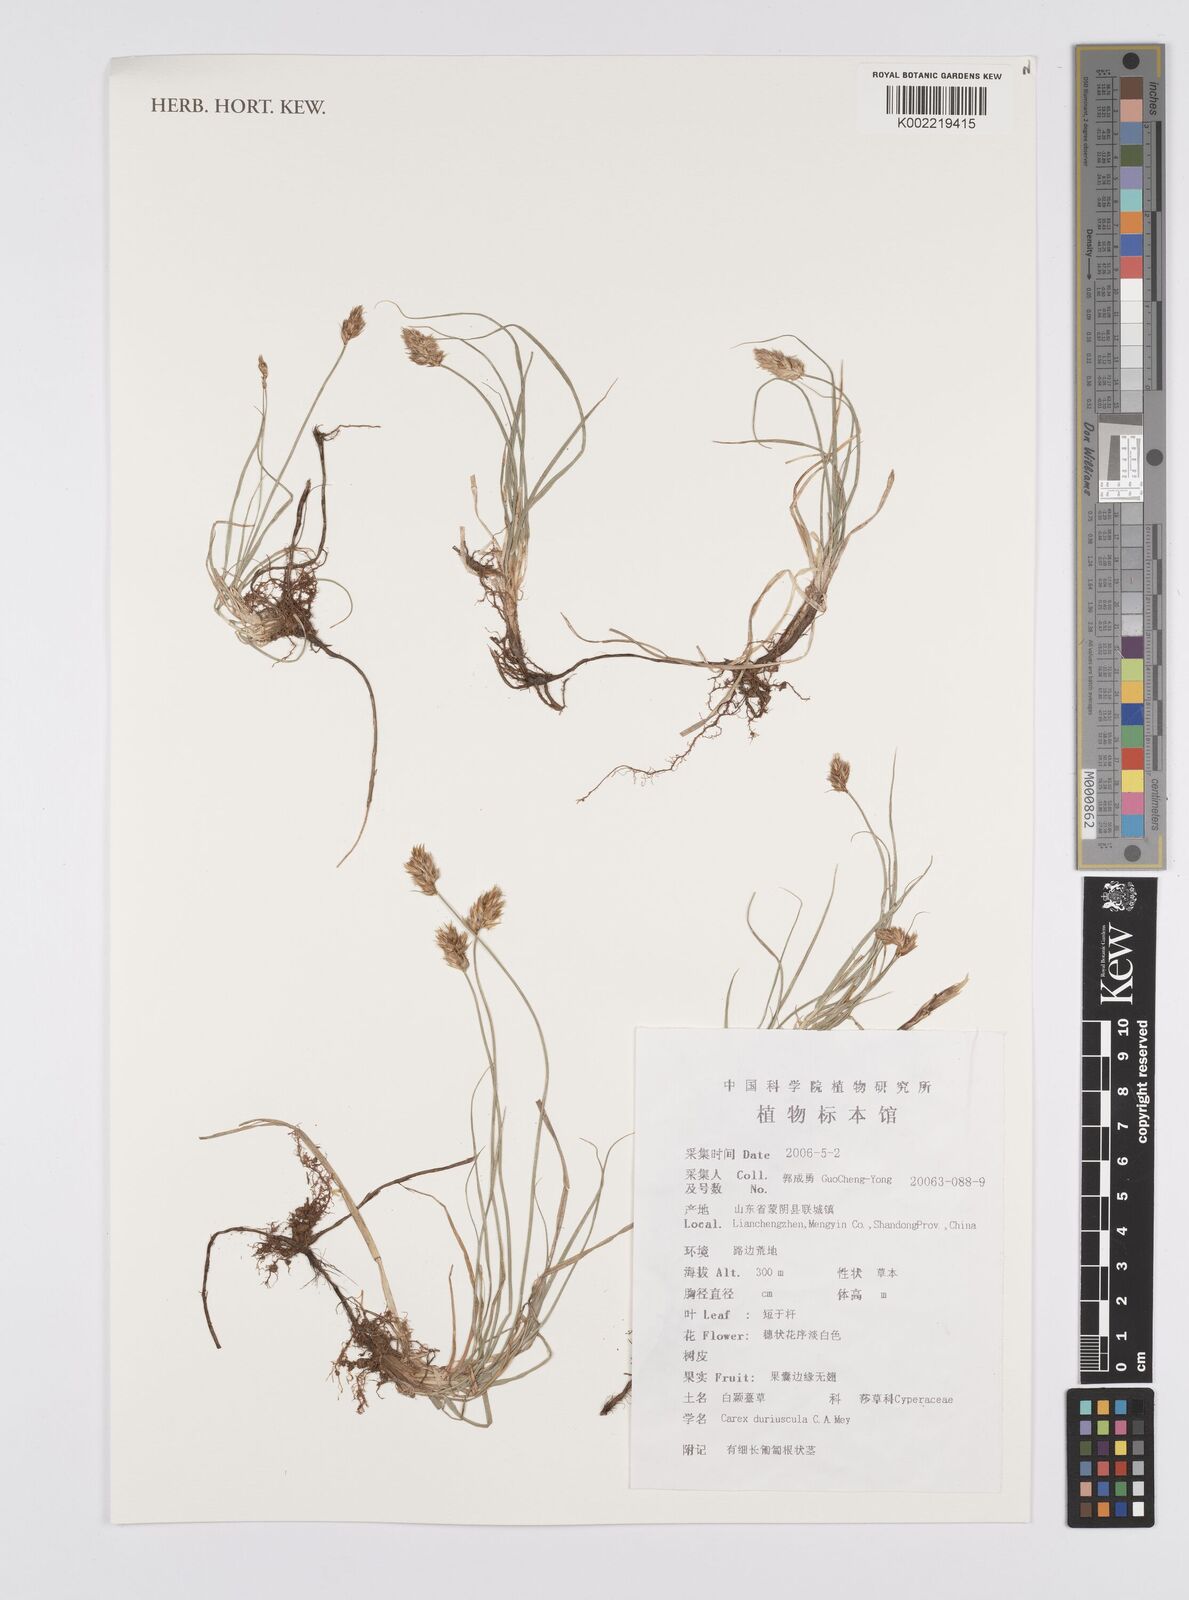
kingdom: Plantae
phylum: Tracheophyta
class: Liliopsida
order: Poales
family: Cyperaceae
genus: Carex
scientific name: Carex duriuscula
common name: Involute-leaved sedge
